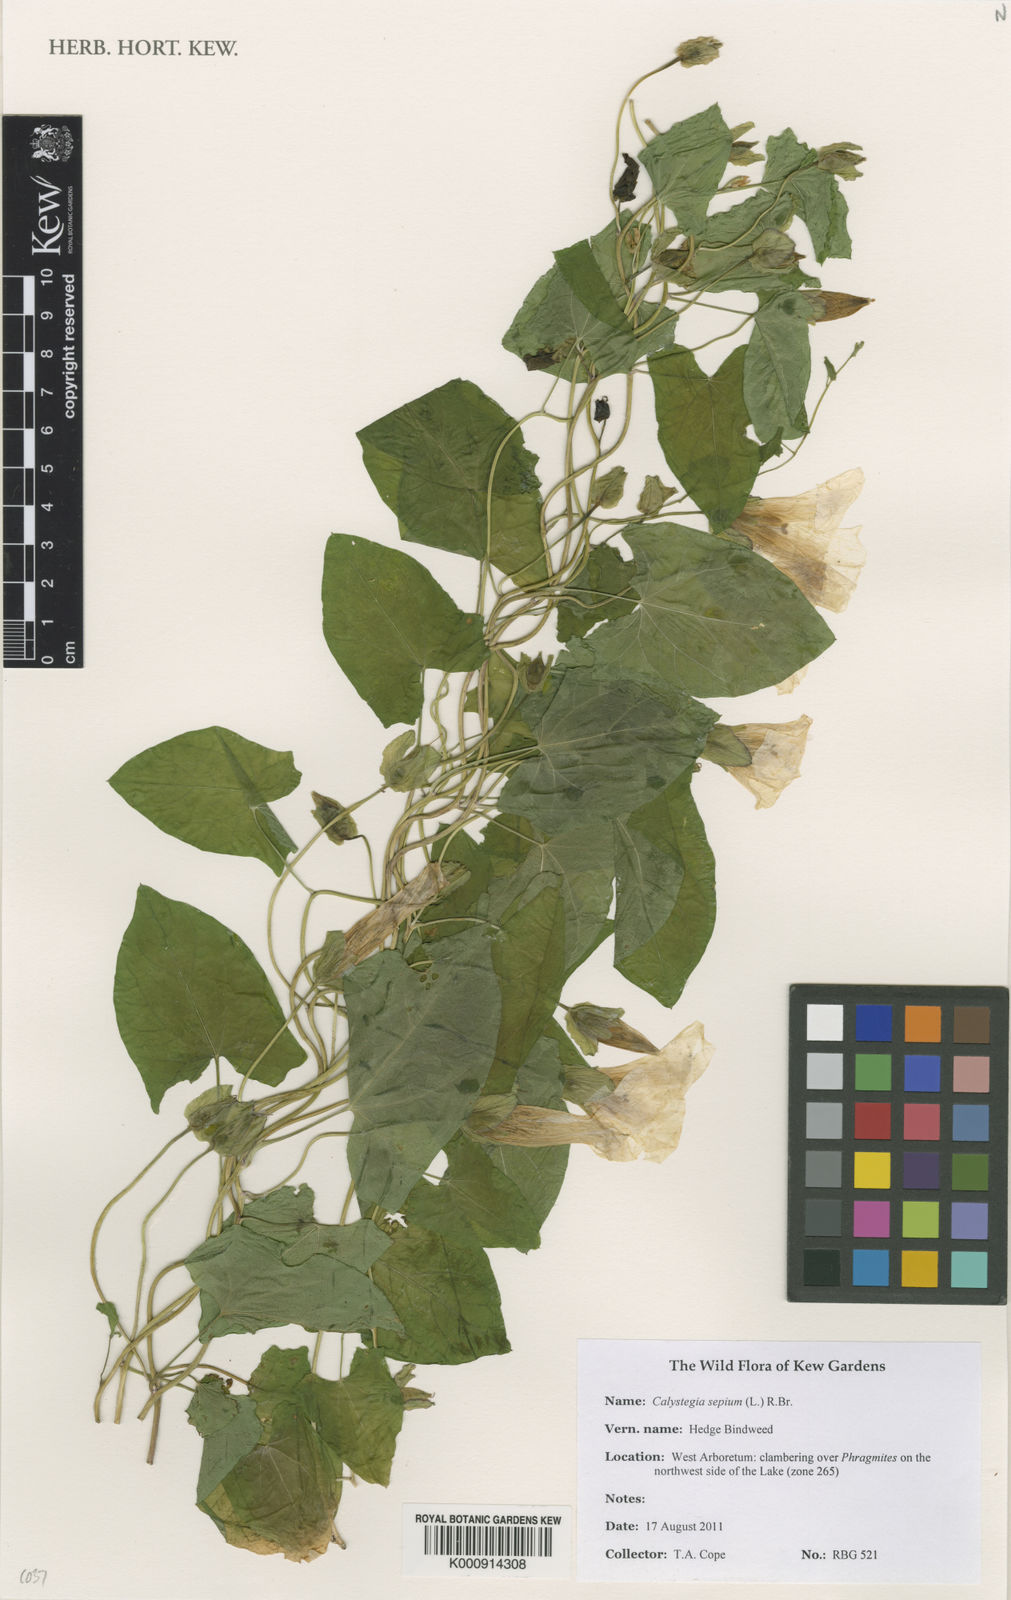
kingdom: Plantae
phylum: Tracheophyta
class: Magnoliopsida
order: Solanales
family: Convolvulaceae
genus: Calystegia
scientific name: Calystegia sepium
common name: Hedge bindweed
